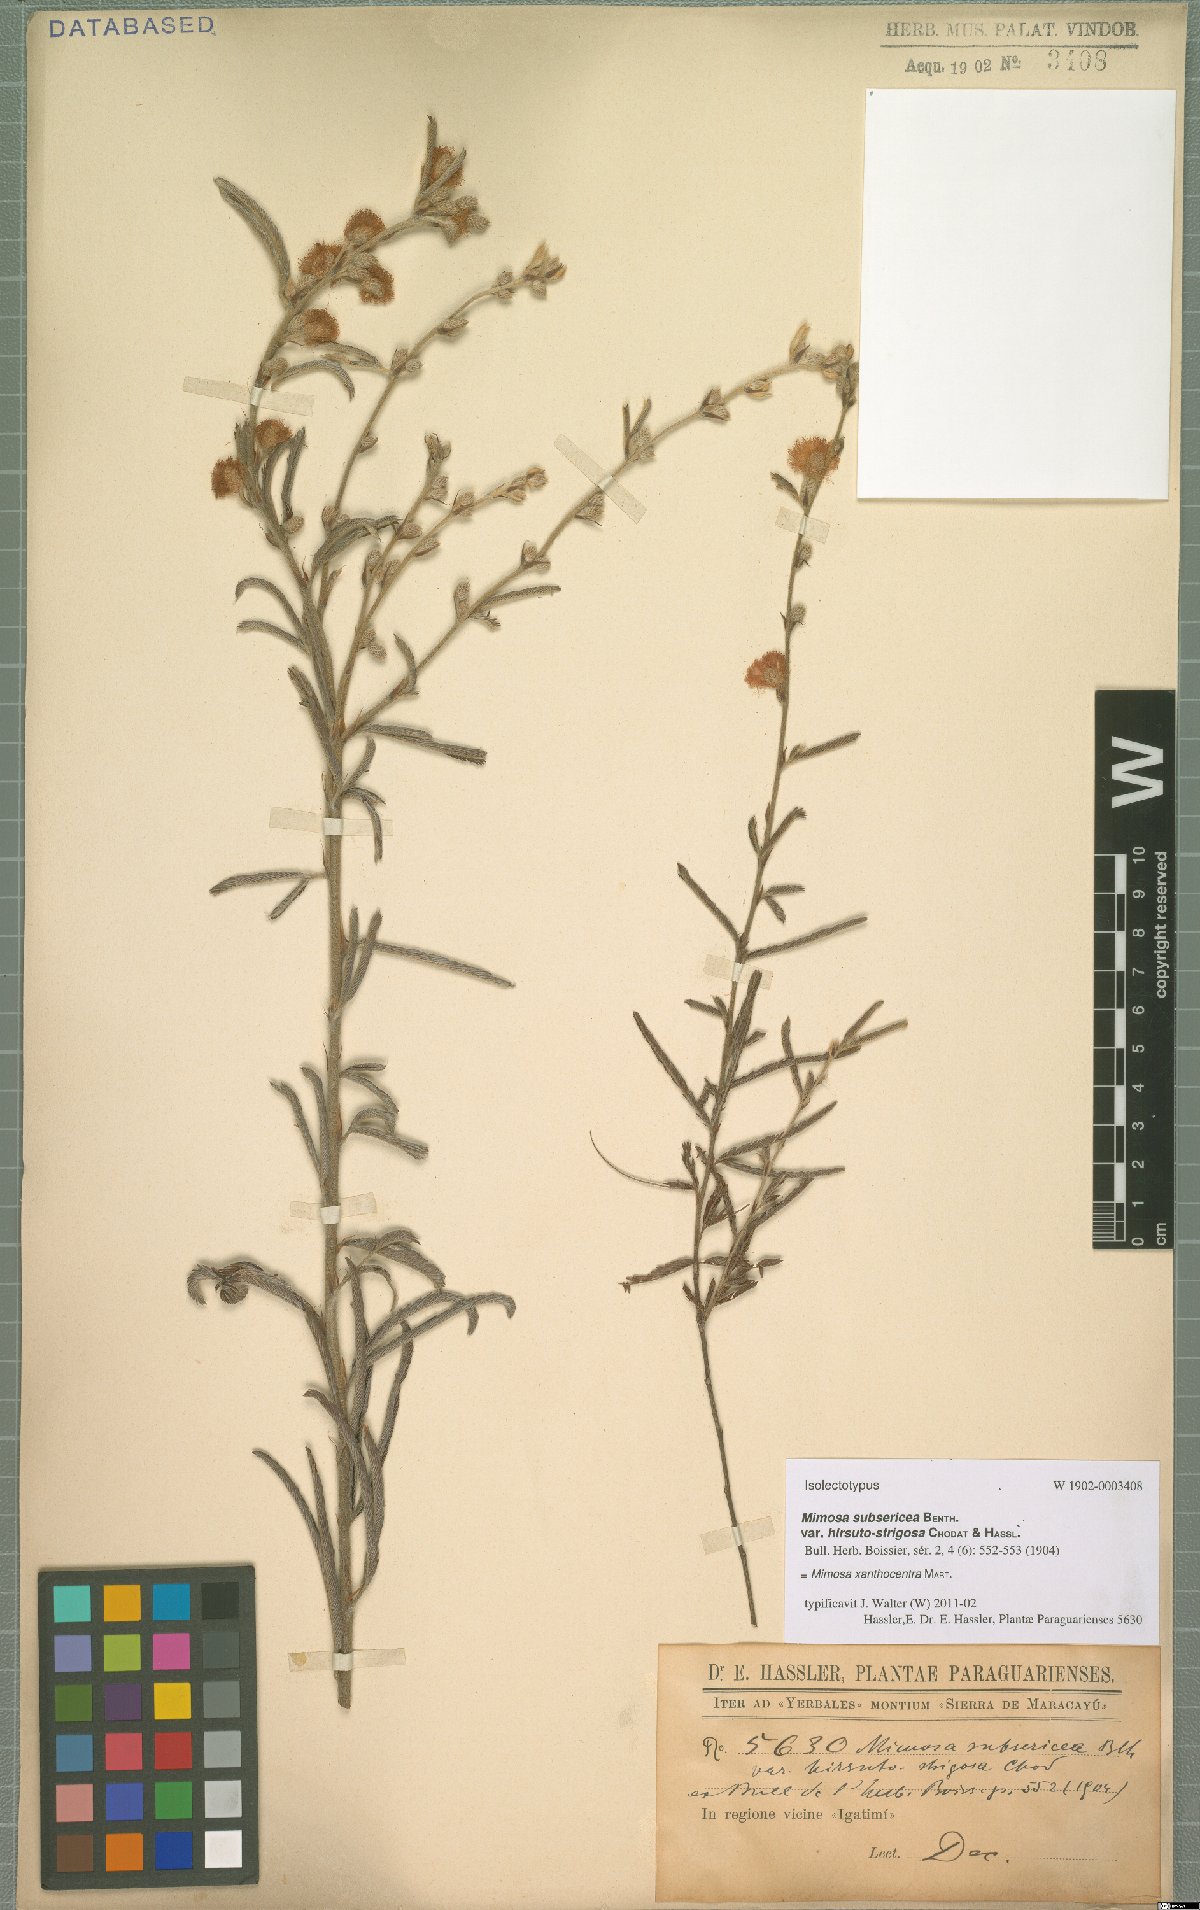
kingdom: Plantae
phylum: Tracheophyta
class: Magnoliopsida
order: Fabales
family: Fabaceae
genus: Mimosa
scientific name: Mimosa xanthocentra
